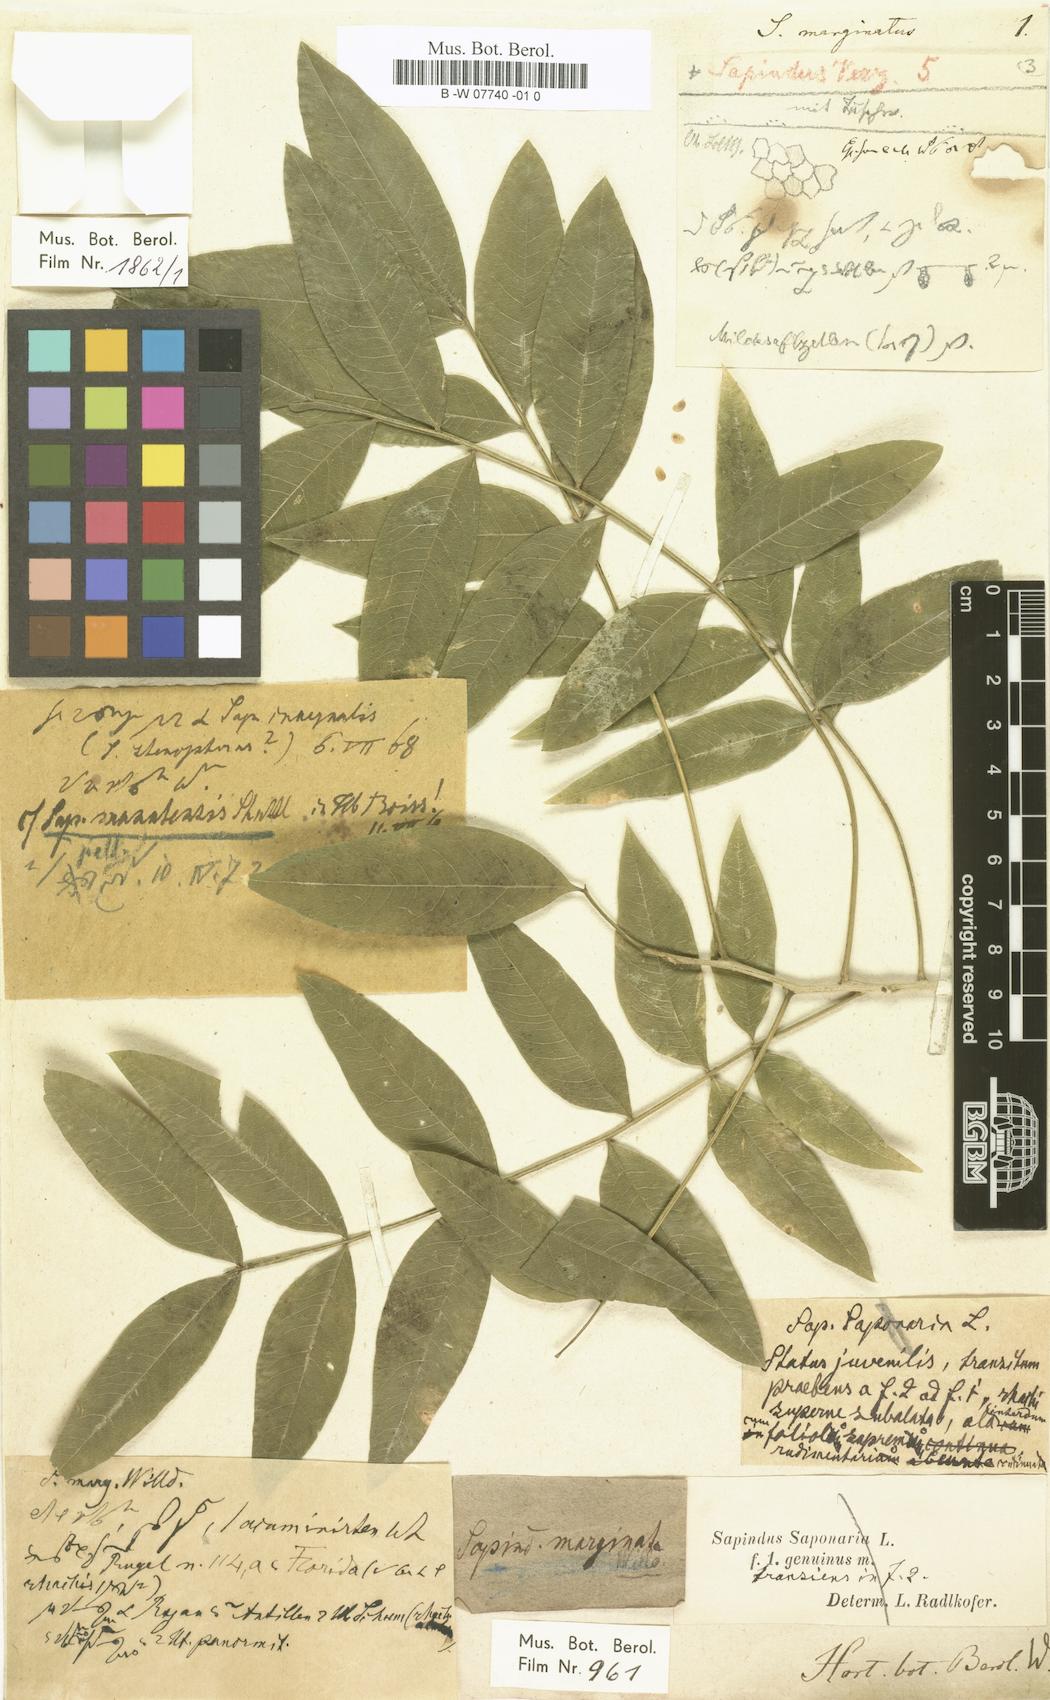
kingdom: Plantae
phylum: Tracheophyta
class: Magnoliopsida
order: Sapindales
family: Sapindaceae
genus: Sapindus
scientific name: Sapindus saponaria
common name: Wingleaf soapberry
